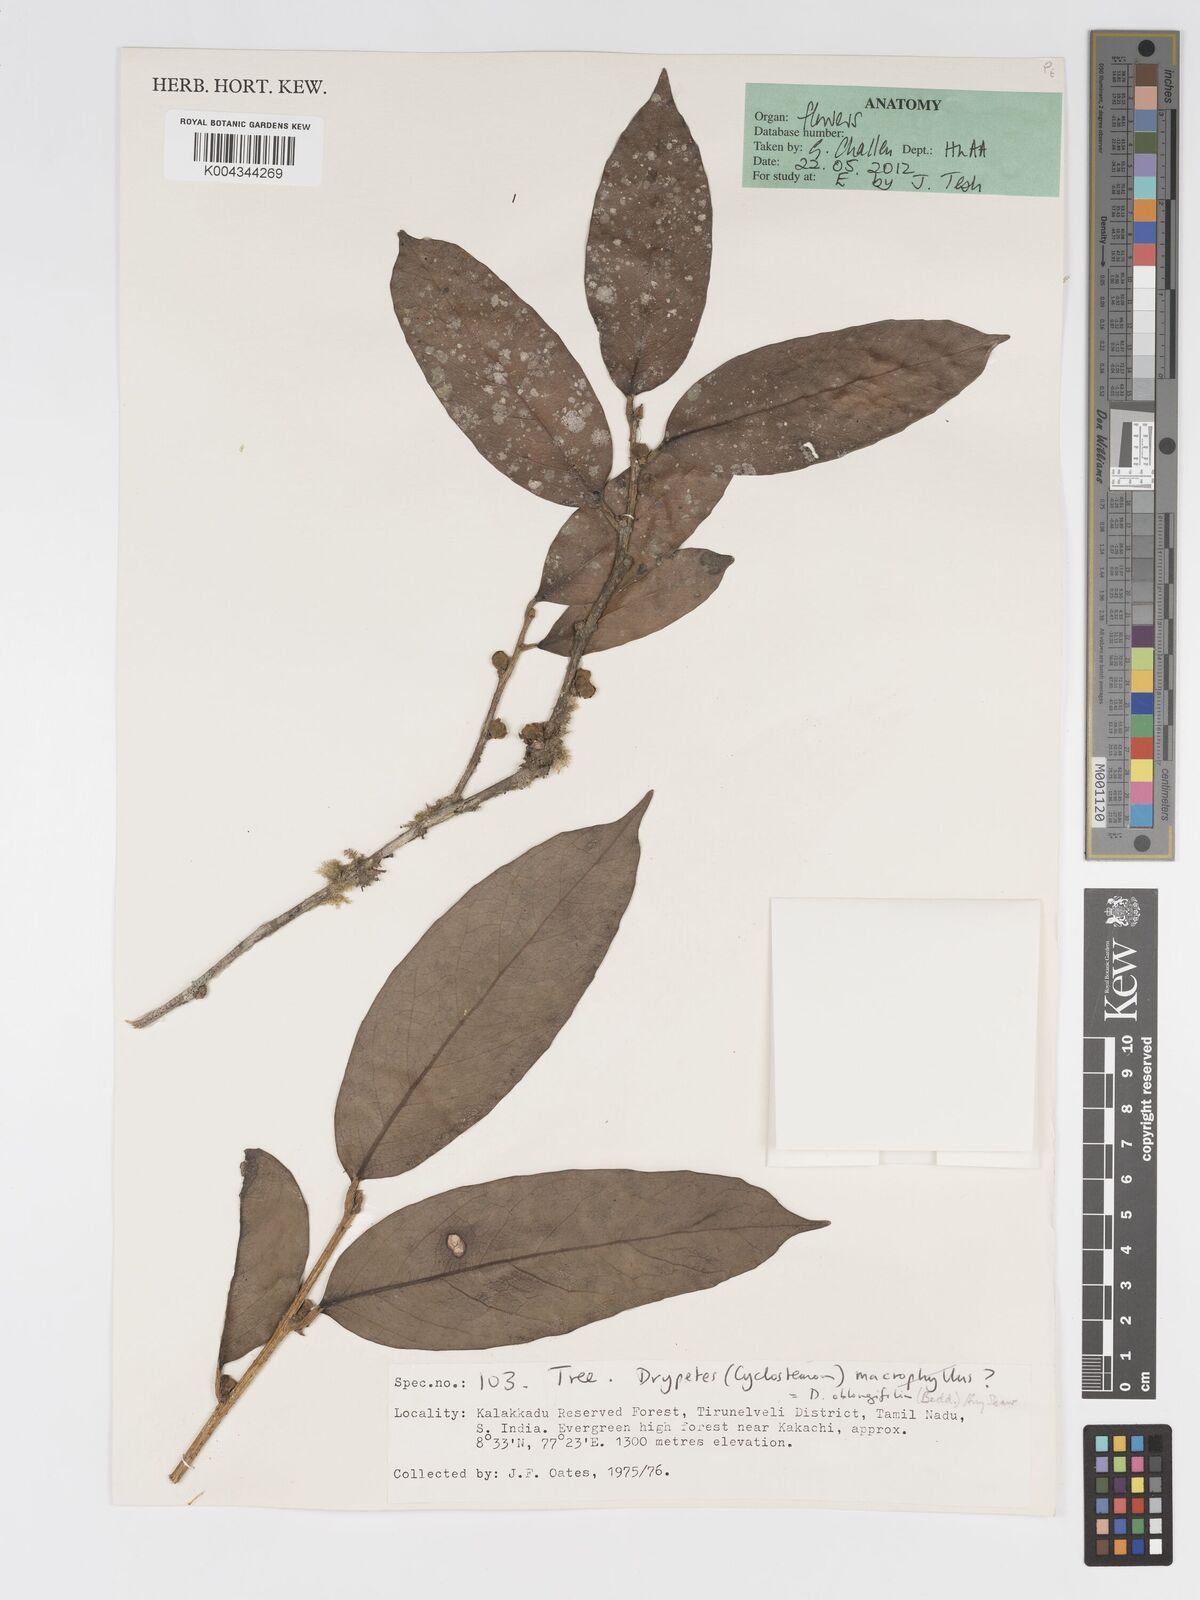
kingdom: Plantae
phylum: Tracheophyta
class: Magnoliopsida
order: Malpighiales
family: Putranjivaceae
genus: Drypetes
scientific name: Drypetes oblongifolia
